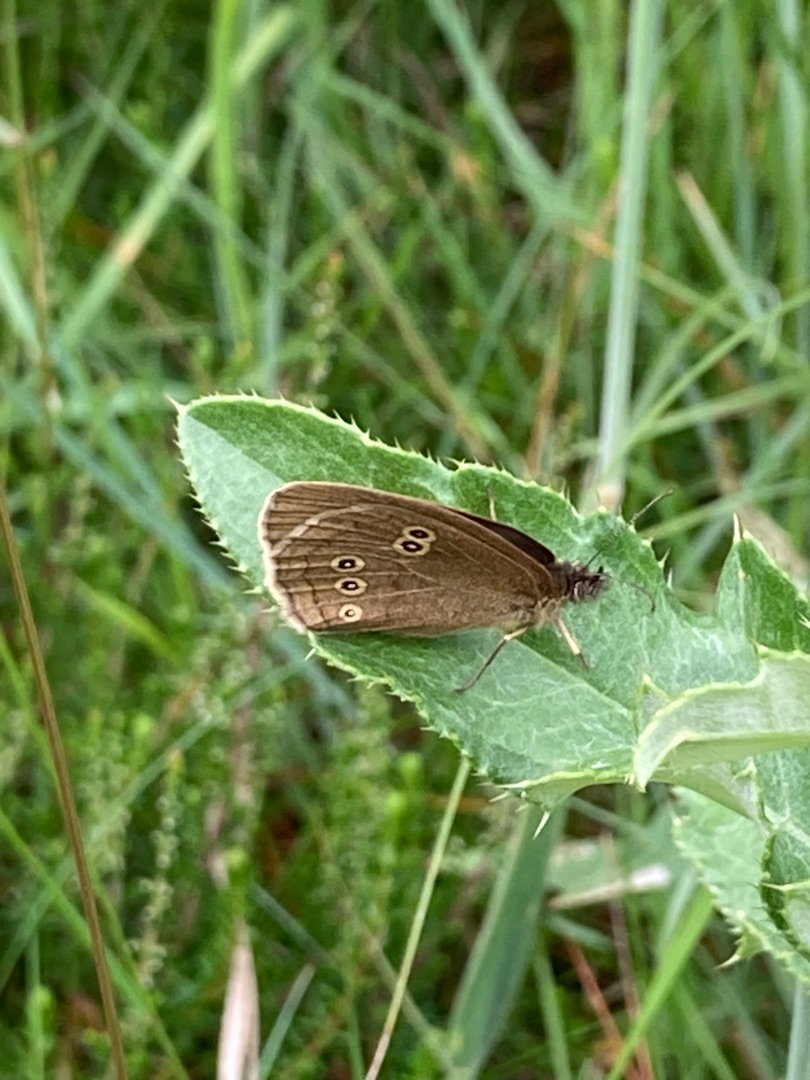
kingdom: Animalia
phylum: Arthropoda
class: Insecta
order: Lepidoptera
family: Nymphalidae
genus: Aphantopus
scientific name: Aphantopus hyperantus
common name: Engrandøje
